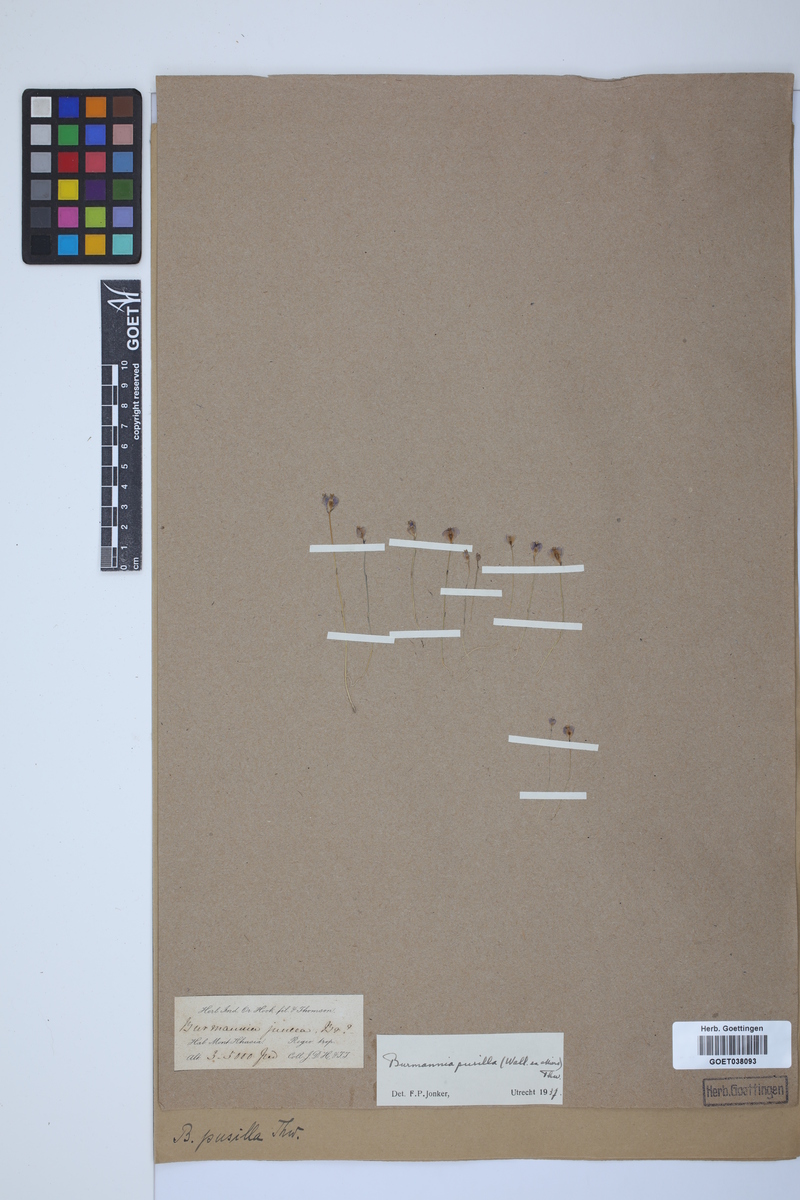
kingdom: Plantae
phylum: Tracheophyta
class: Liliopsida
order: Dioscoreales
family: Burmanniaceae
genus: Burmannia
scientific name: Burmannia pusilla
